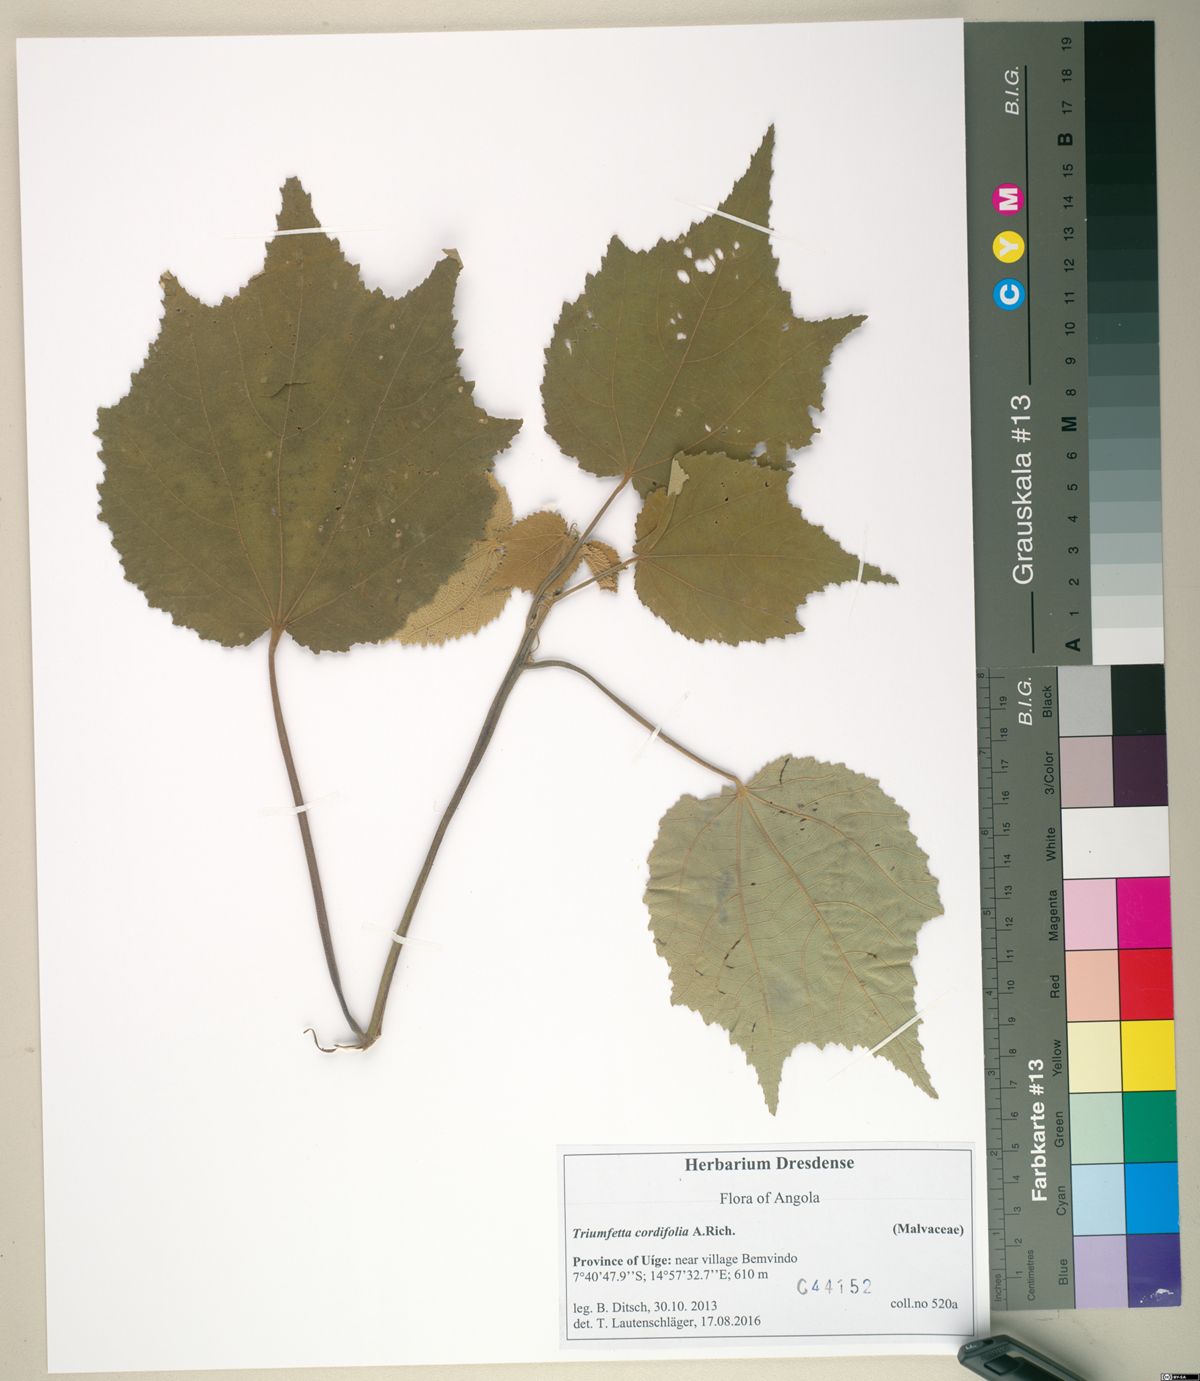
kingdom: Plantae
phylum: Tracheophyta
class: Magnoliopsida
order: Malvales
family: Malvaceae
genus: Triumfetta
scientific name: Triumfetta cordifolia
